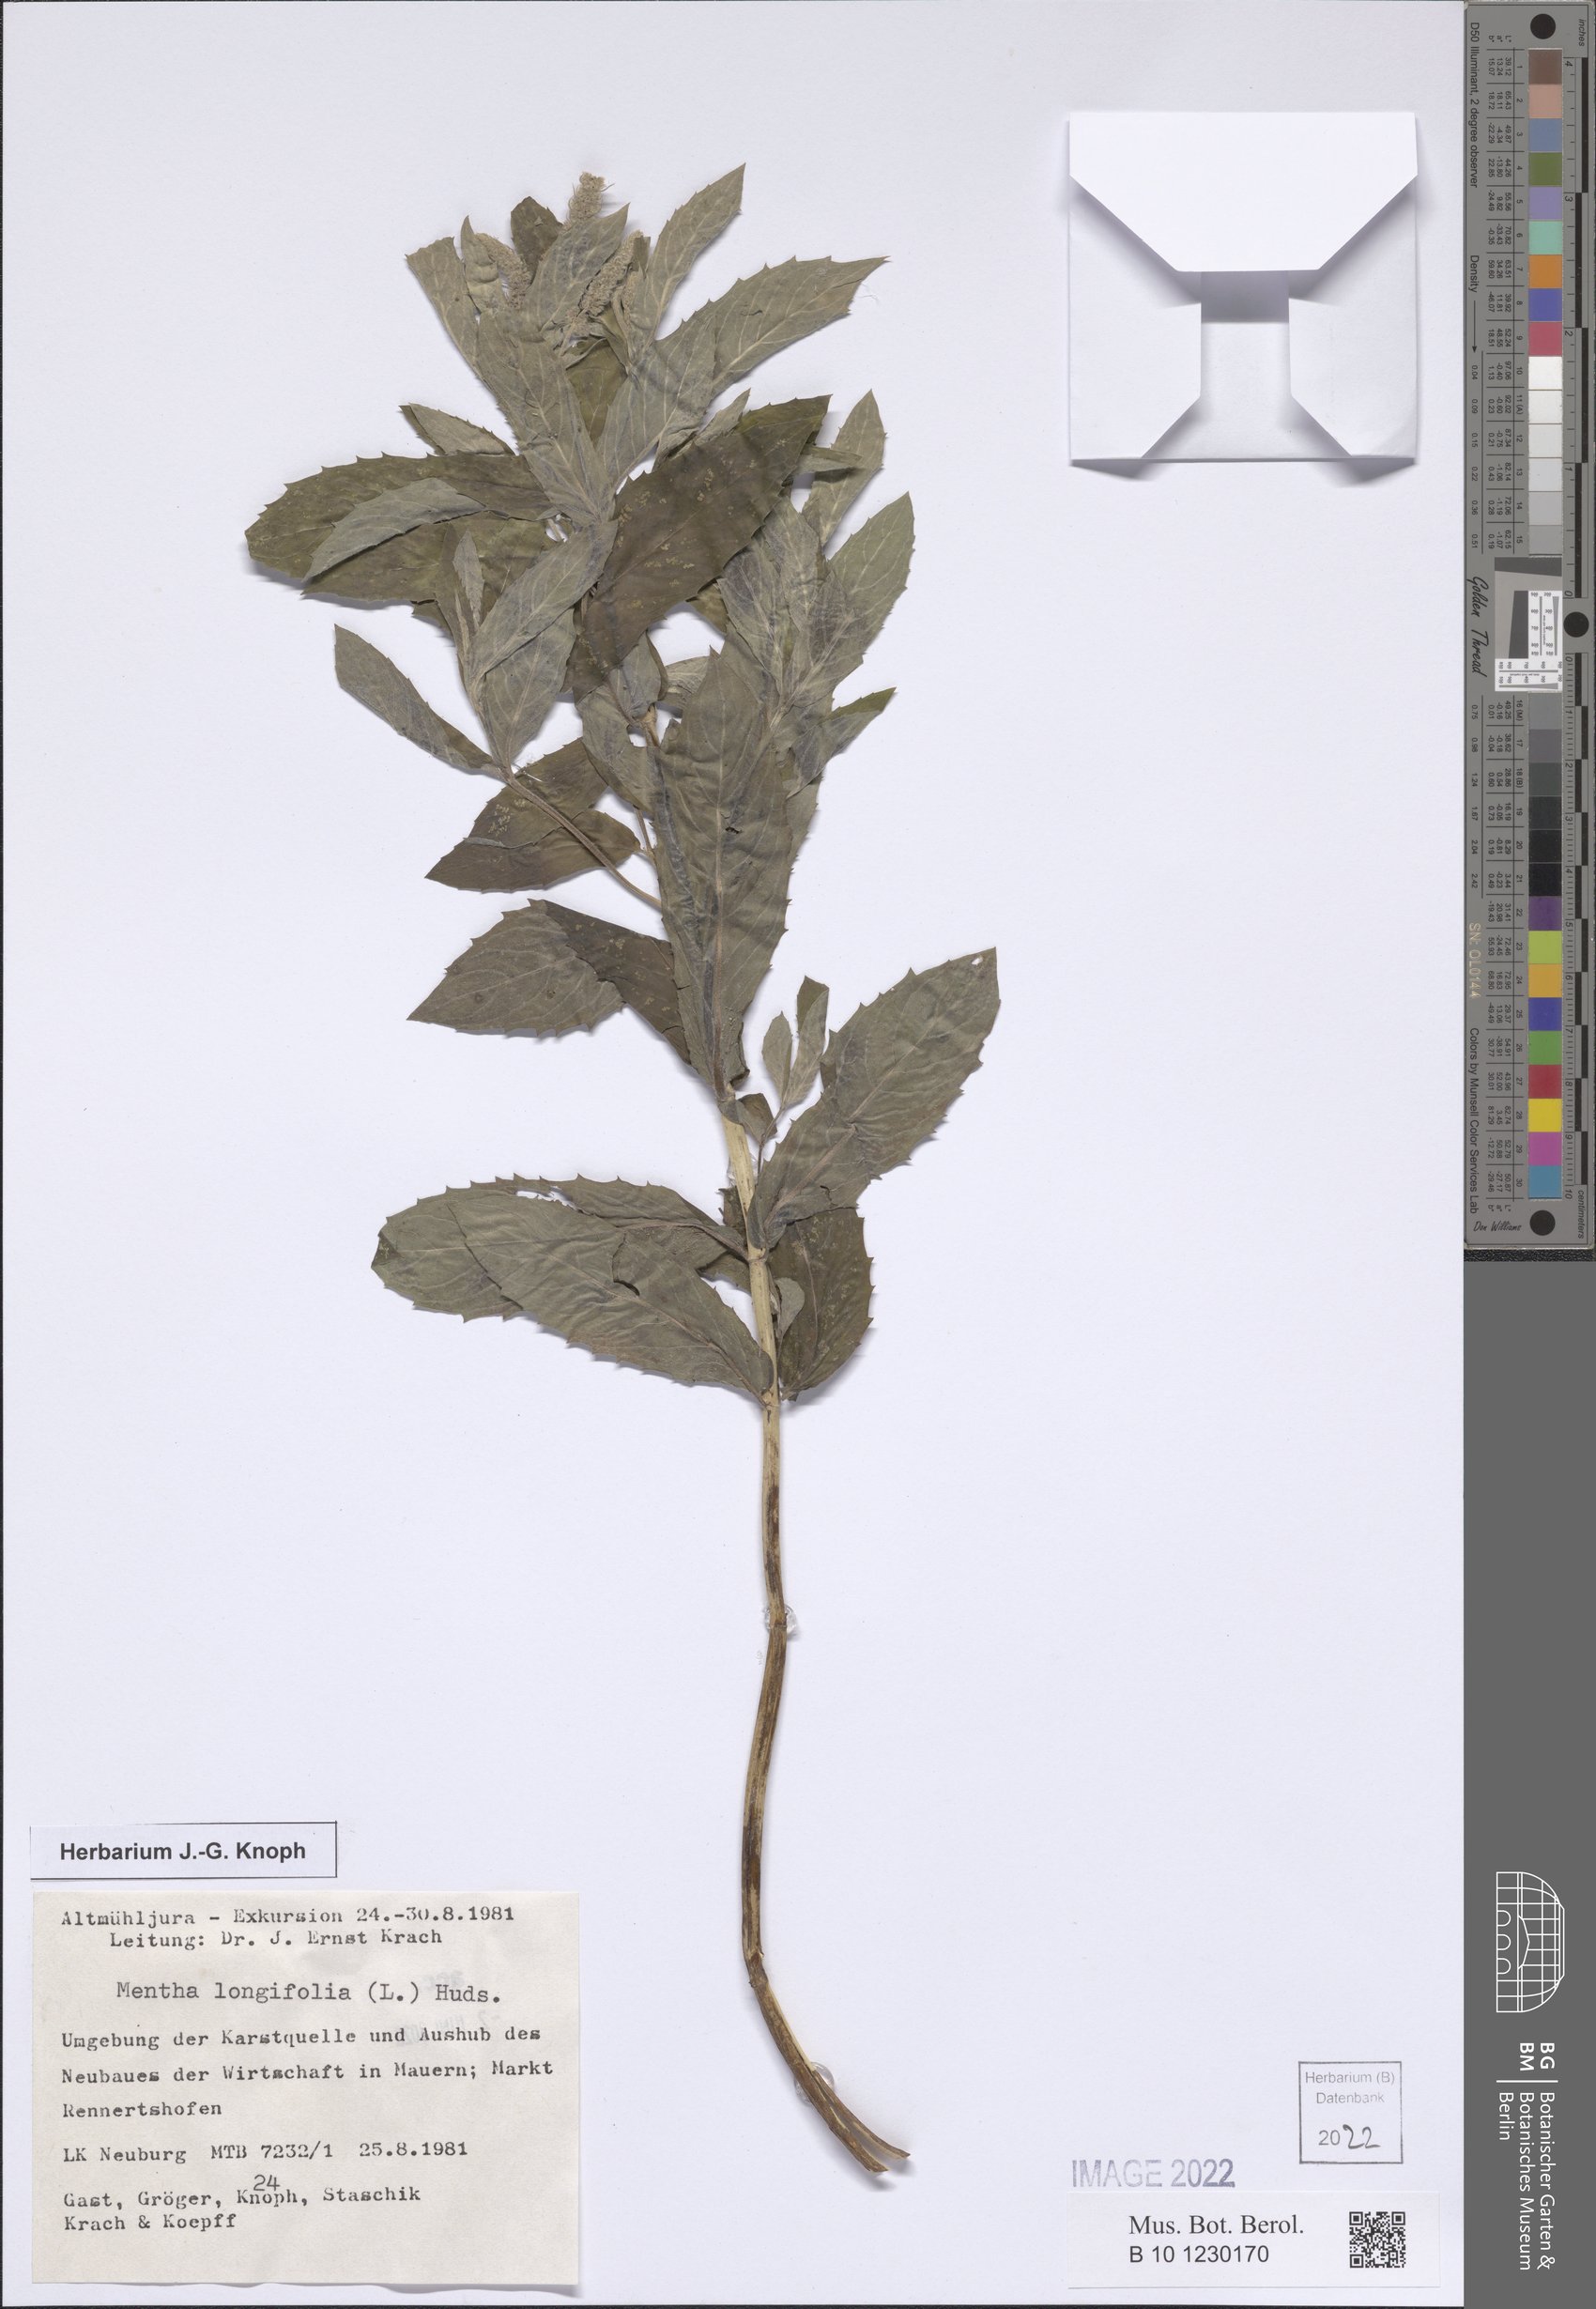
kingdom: Plantae
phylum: Tracheophyta
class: Magnoliopsida
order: Lamiales
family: Lamiaceae
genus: Mentha
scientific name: Mentha longifolia
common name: Horse mint
